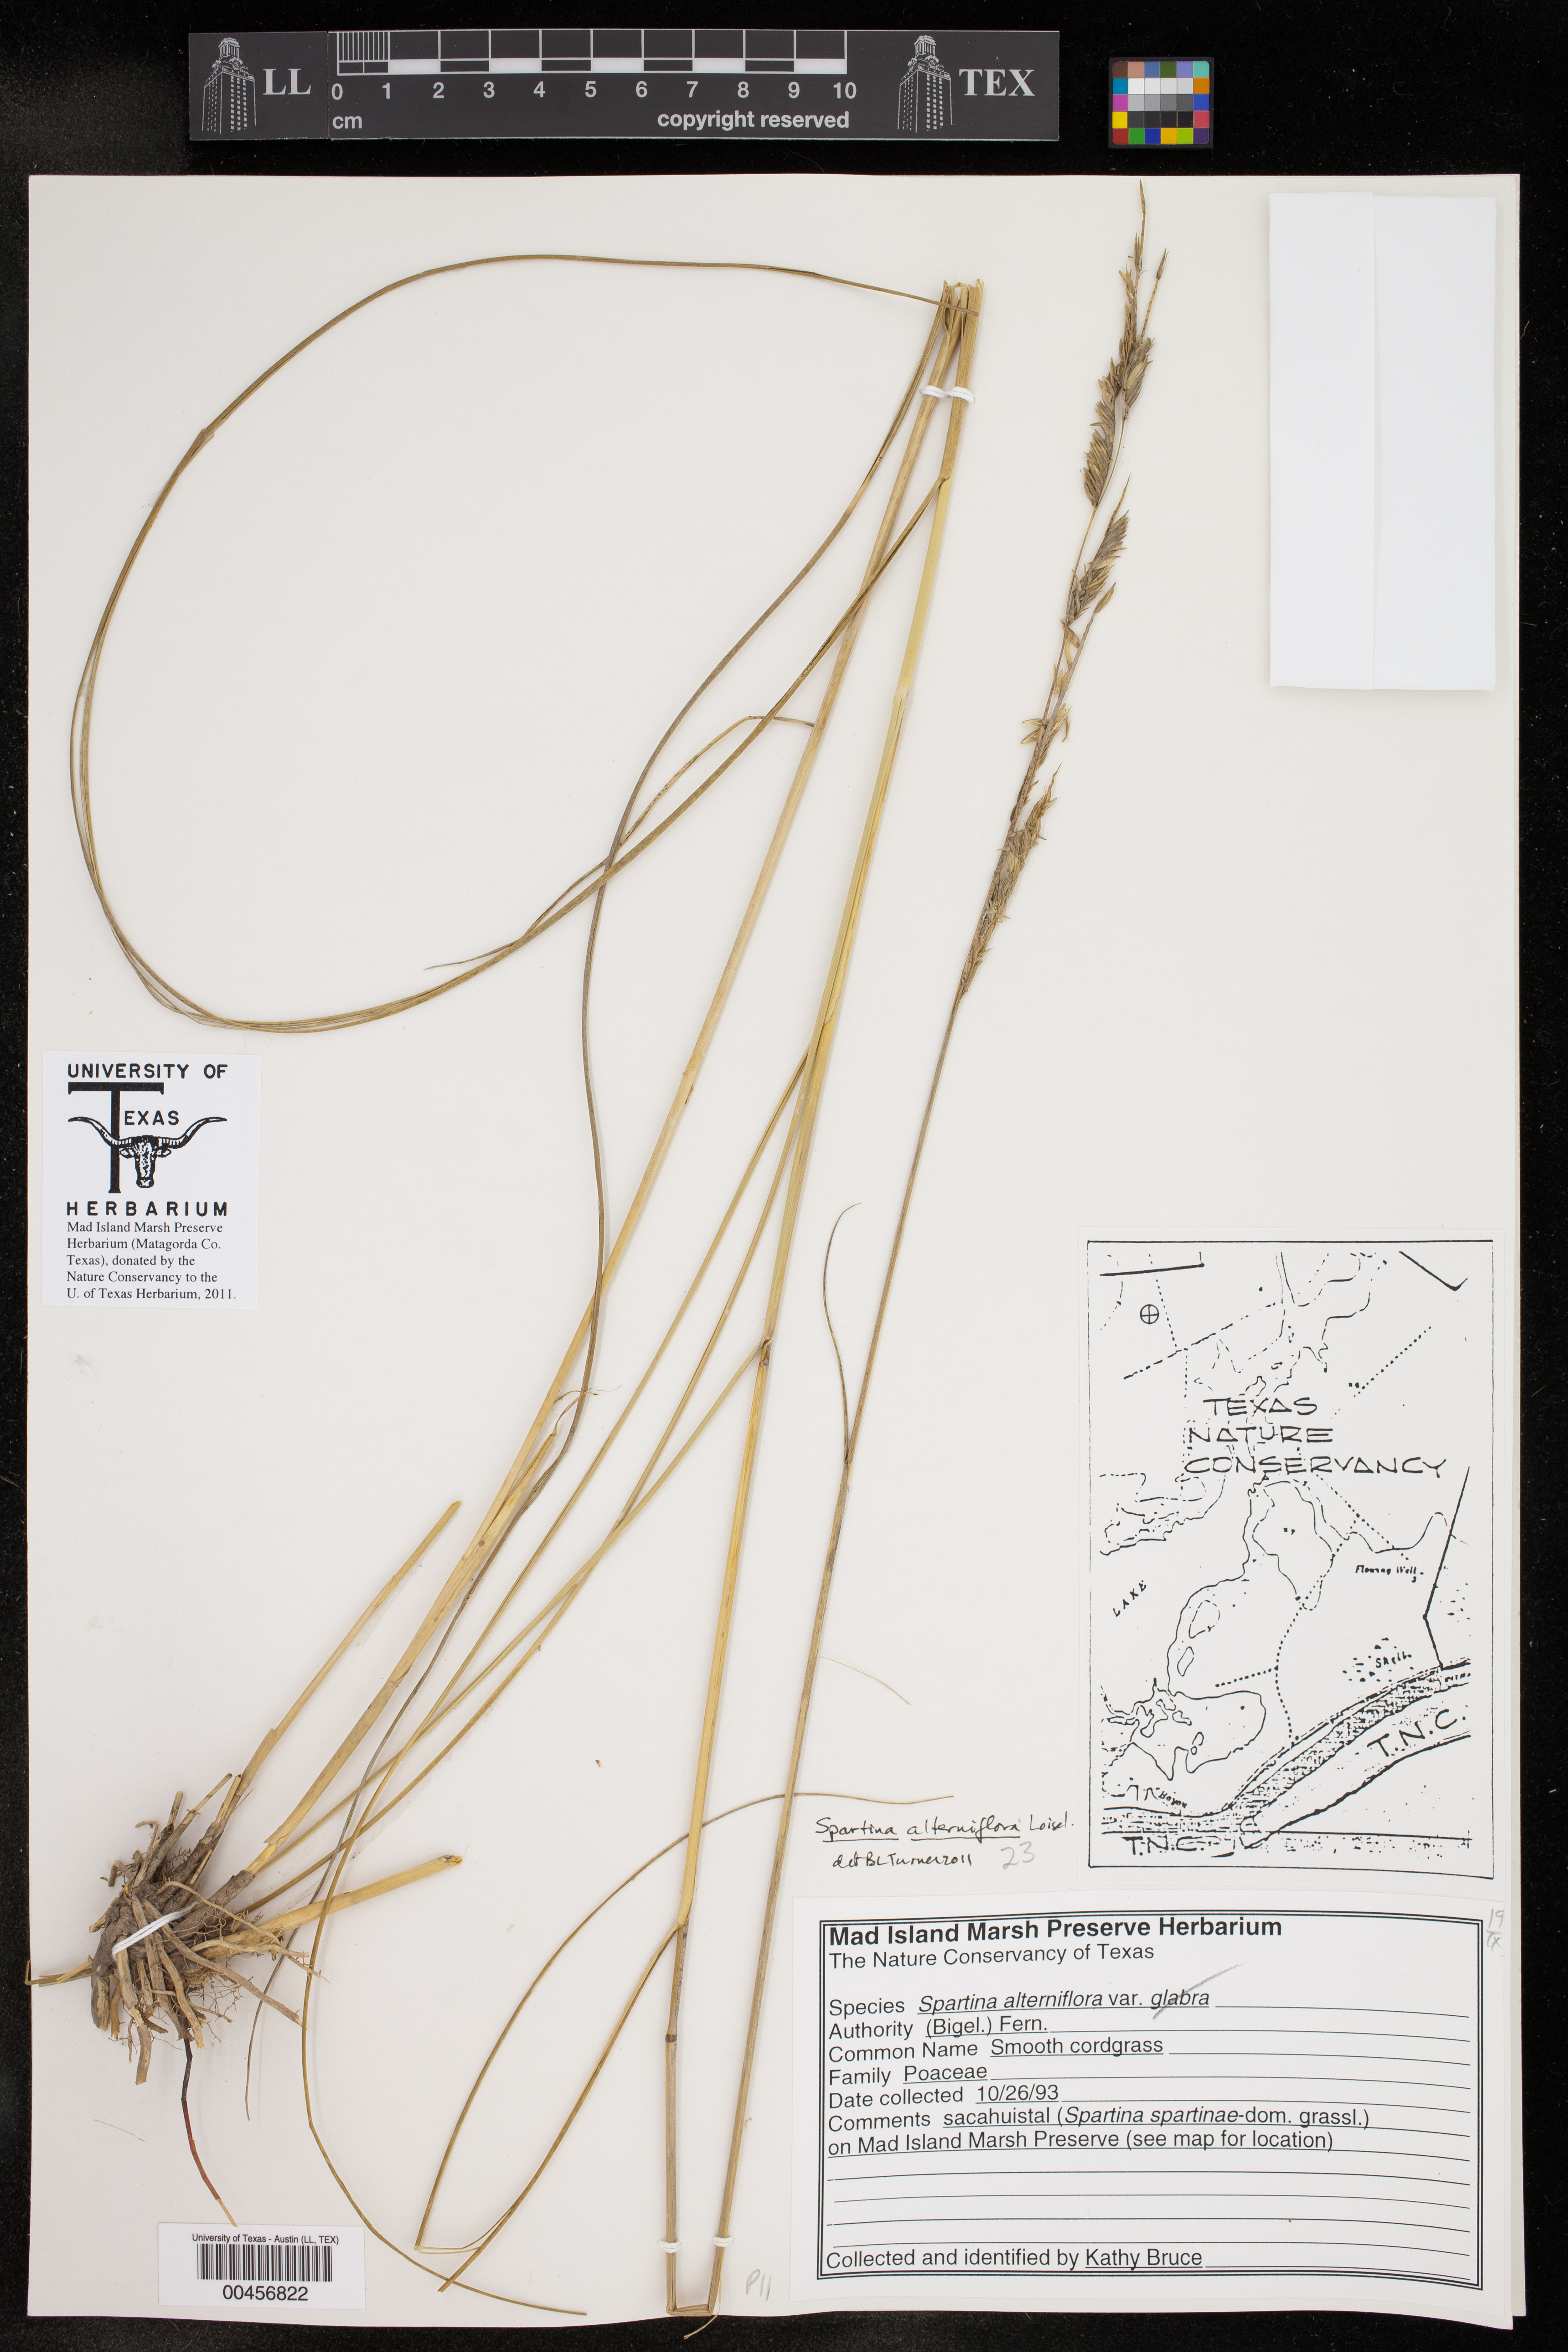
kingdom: Plantae
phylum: Tracheophyta
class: Liliopsida
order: Poales
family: Poaceae
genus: Sporobolus
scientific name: Sporobolus alterniflorus
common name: Atlantic cordgrass
